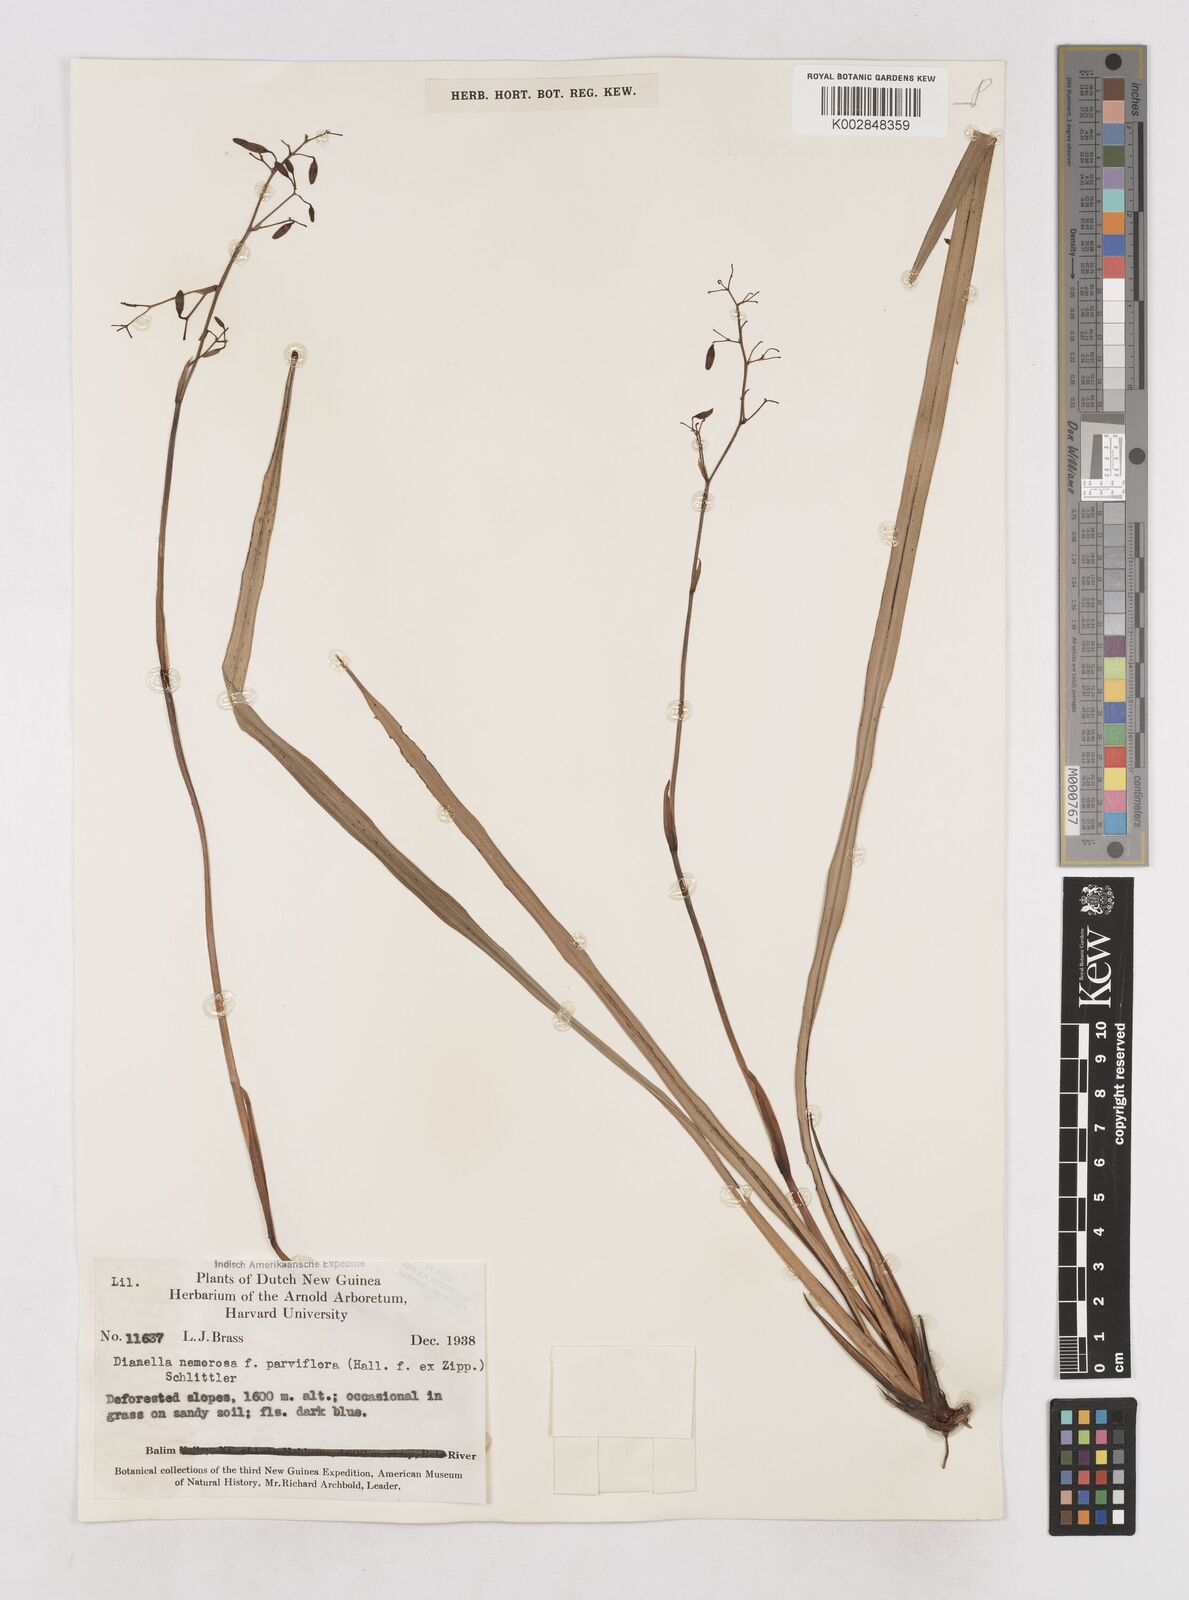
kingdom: Plantae
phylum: Tracheophyta
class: Liliopsida
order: Asparagales
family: Asphodelaceae
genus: Dianella
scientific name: Dianella ensifolia
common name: New zealand lilyplant
